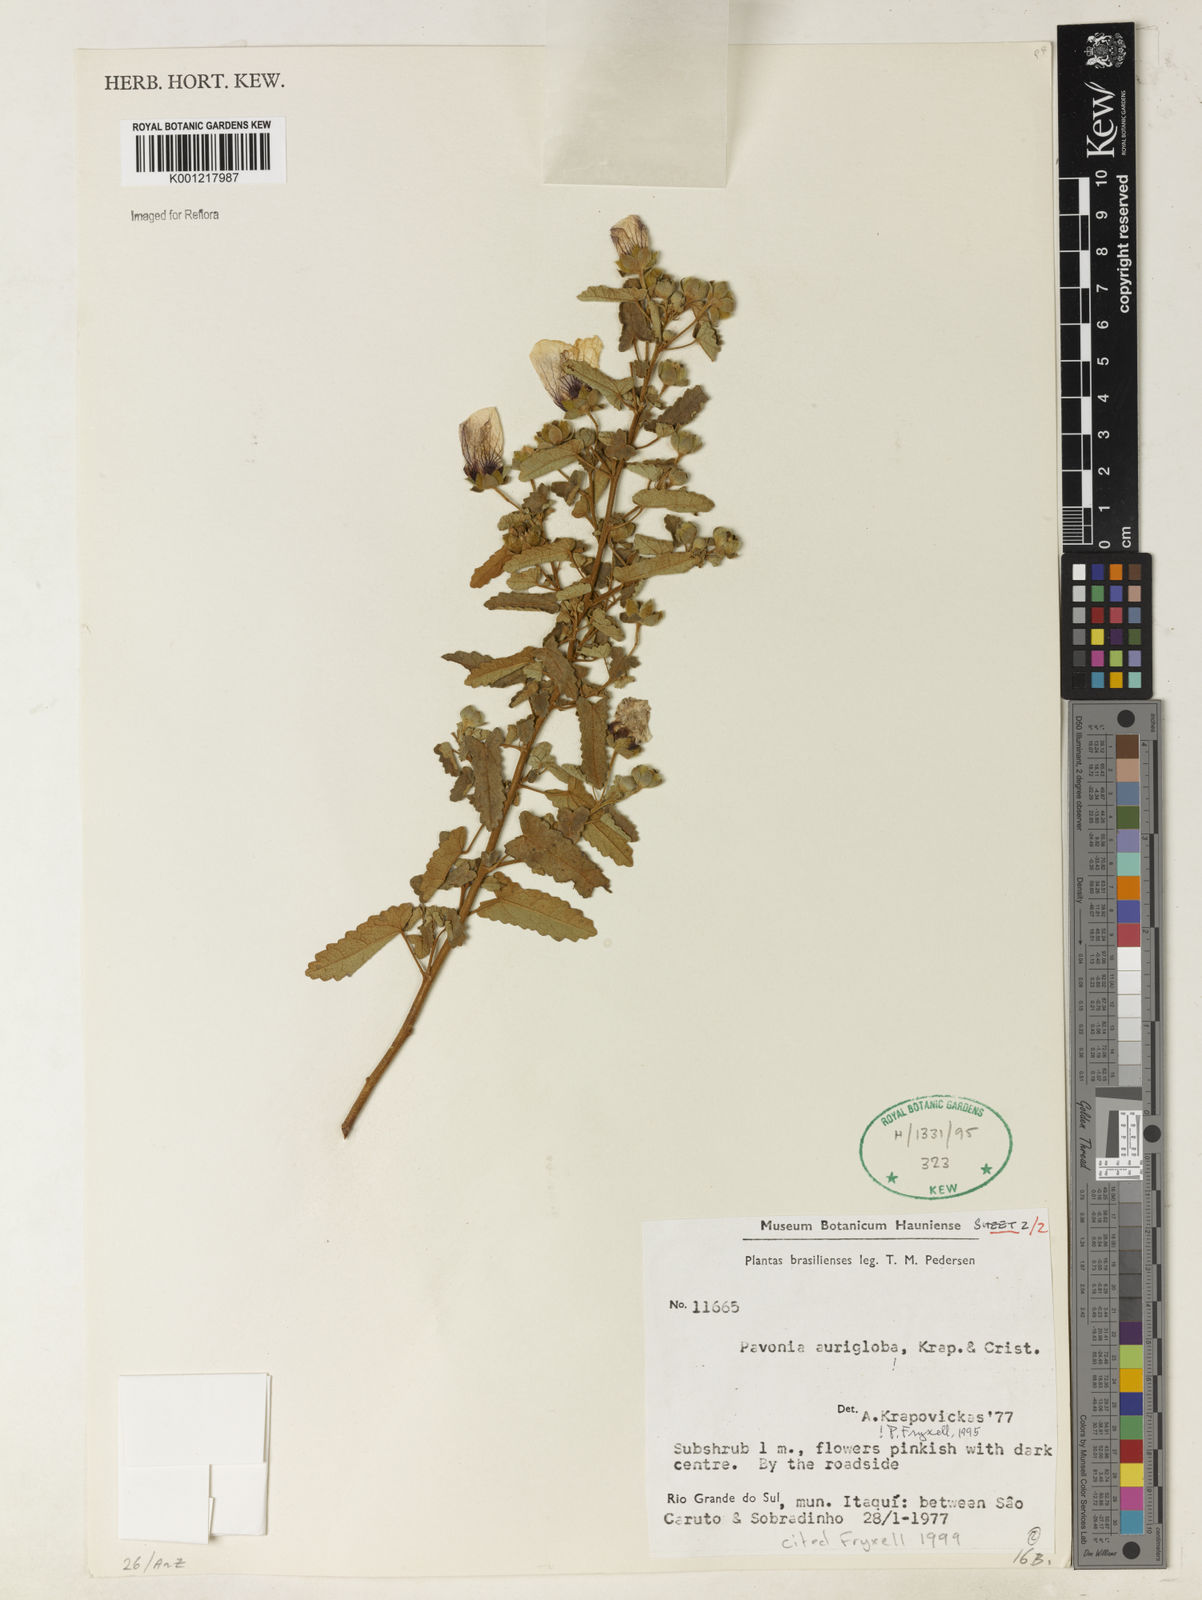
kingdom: Plantae
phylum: Tracheophyta
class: Magnoliopsida
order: Malvales
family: Malvaceae
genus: Pavonia
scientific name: Pavonia
